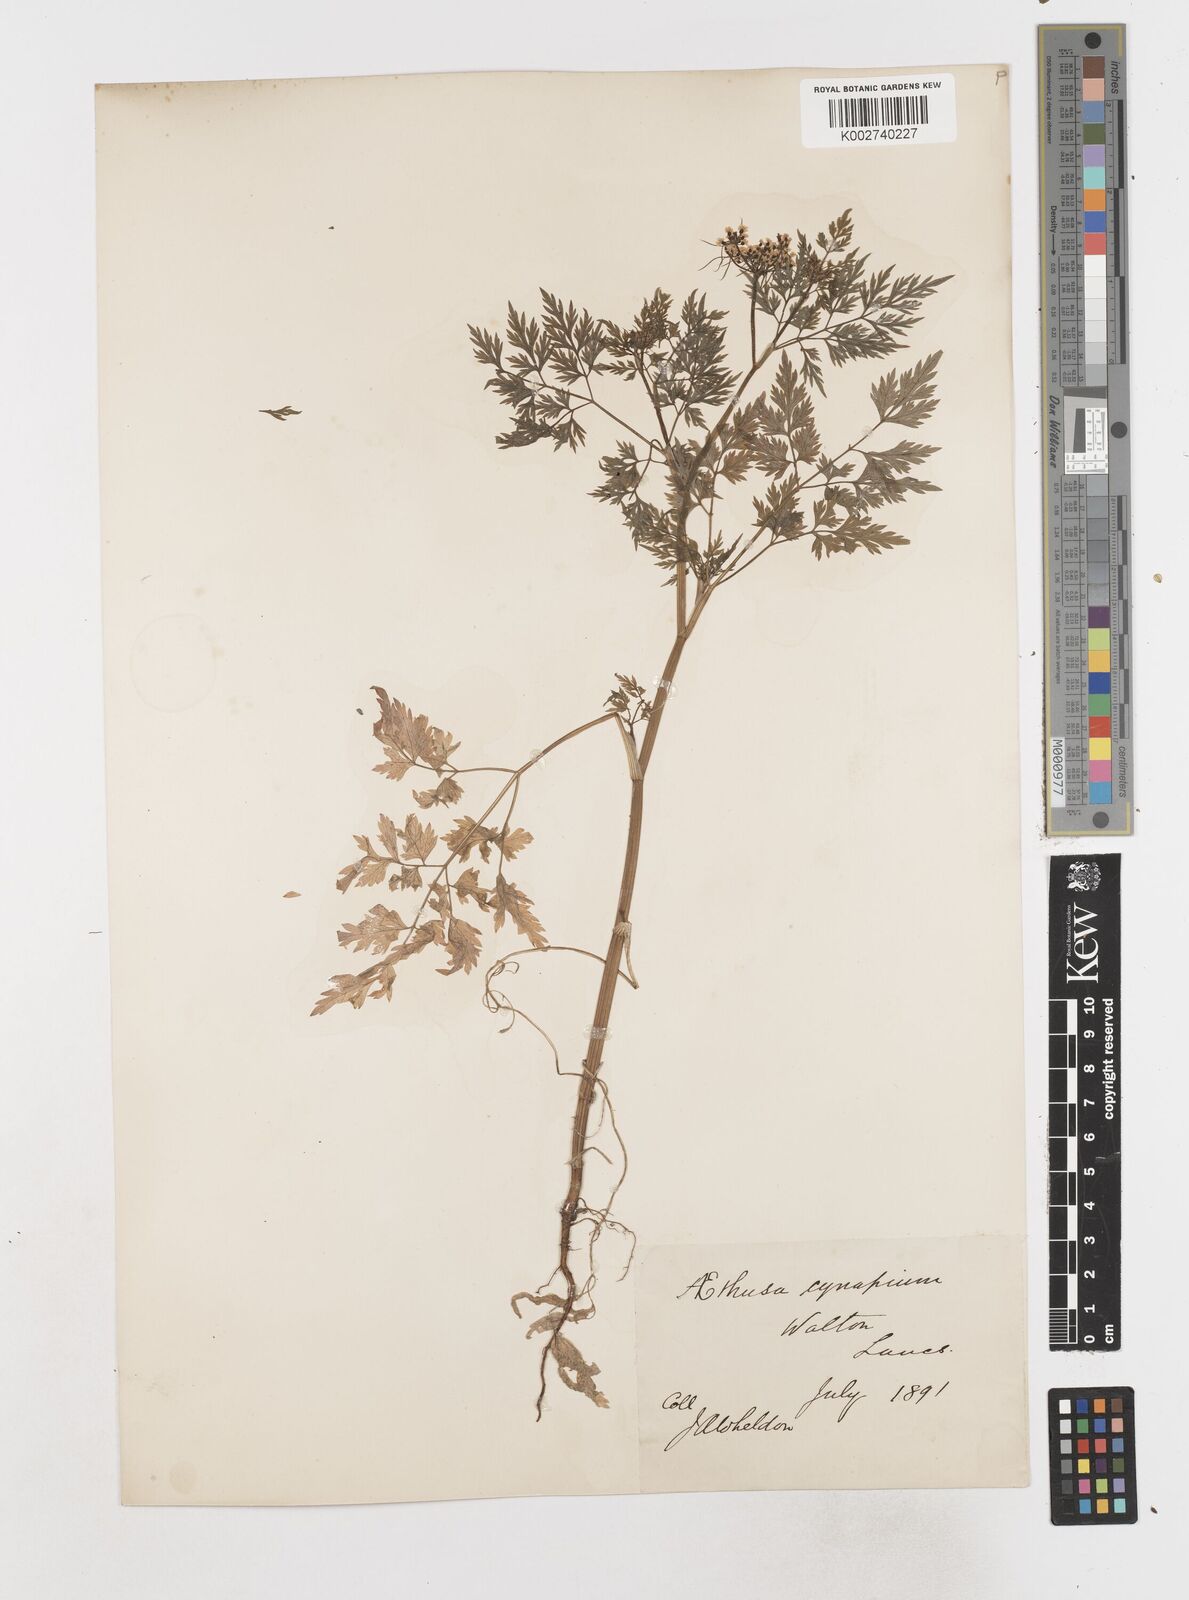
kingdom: Plantae
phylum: Tracheophyta
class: Magnoliopsida
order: Apiales
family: Apiaceae
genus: Aethusa
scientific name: Aethusa cynapium
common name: Fool's parsley
